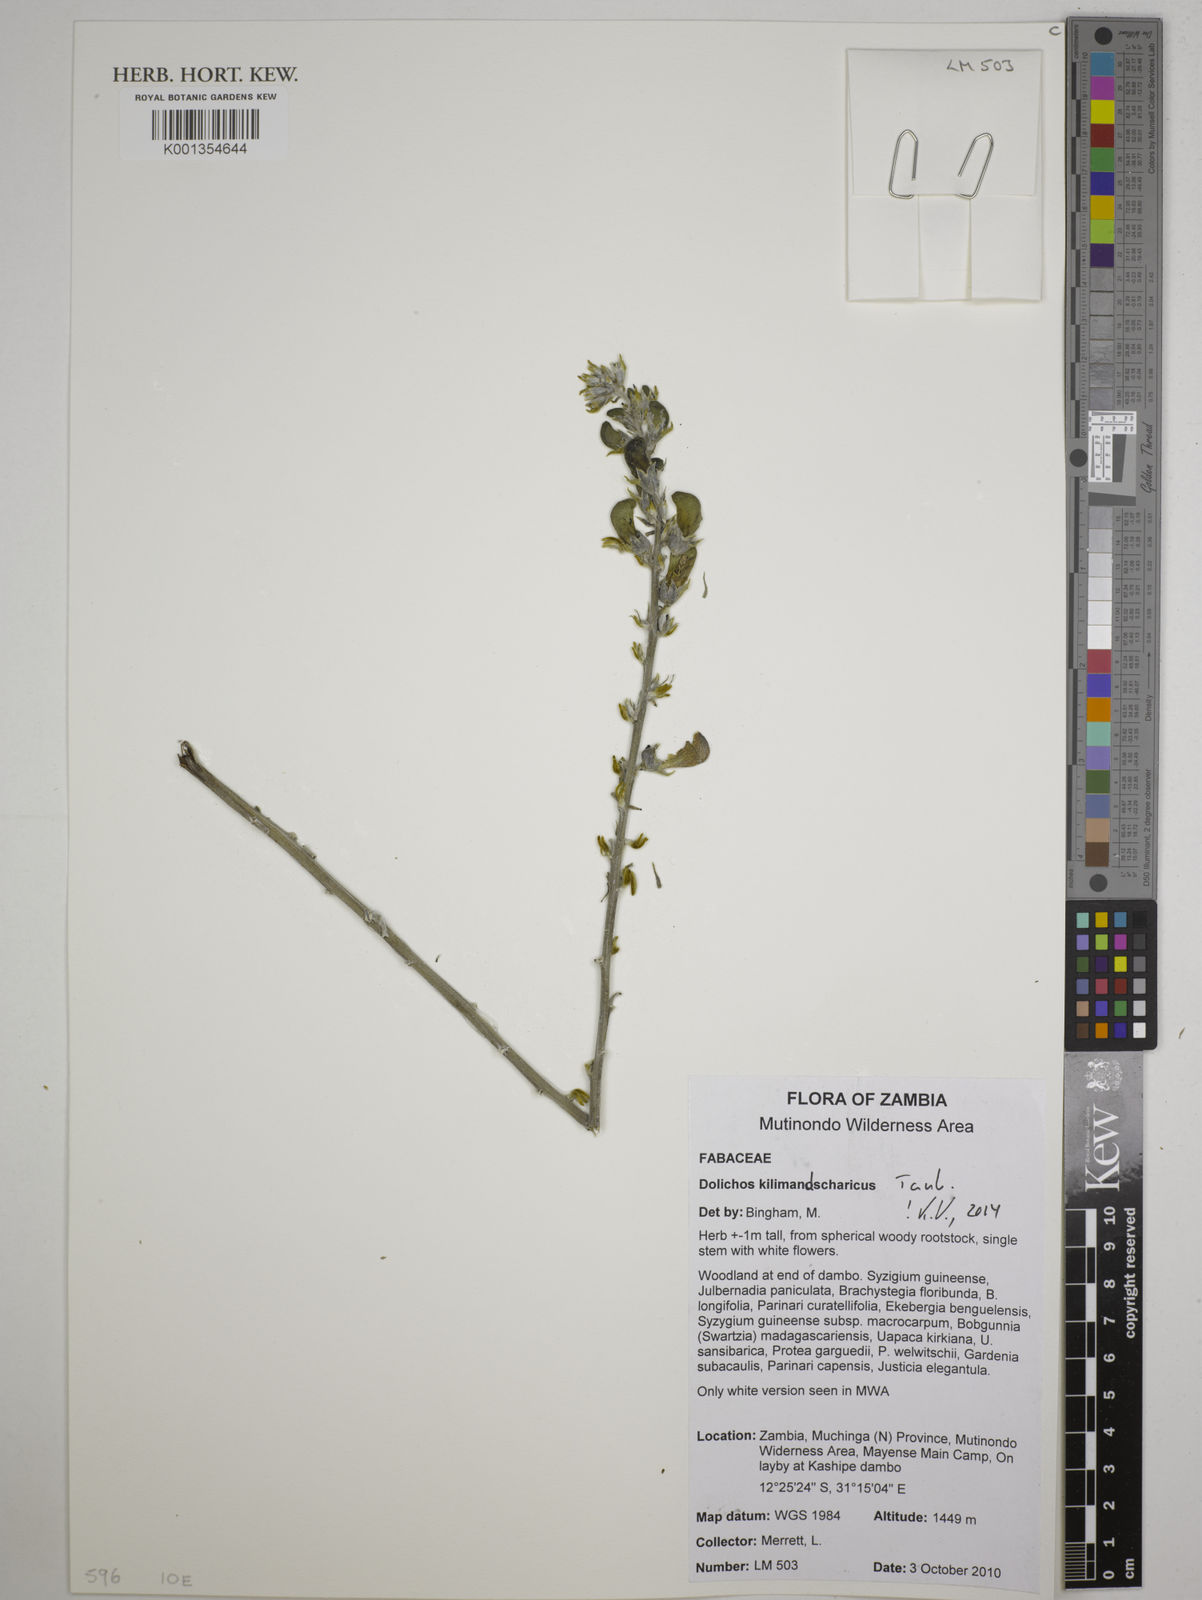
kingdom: Plantae
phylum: Tracheophyta
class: Magnoliopsida
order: Fabales
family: Fabaceae
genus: Dolichos
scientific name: Dolichos kilimandscharicus
